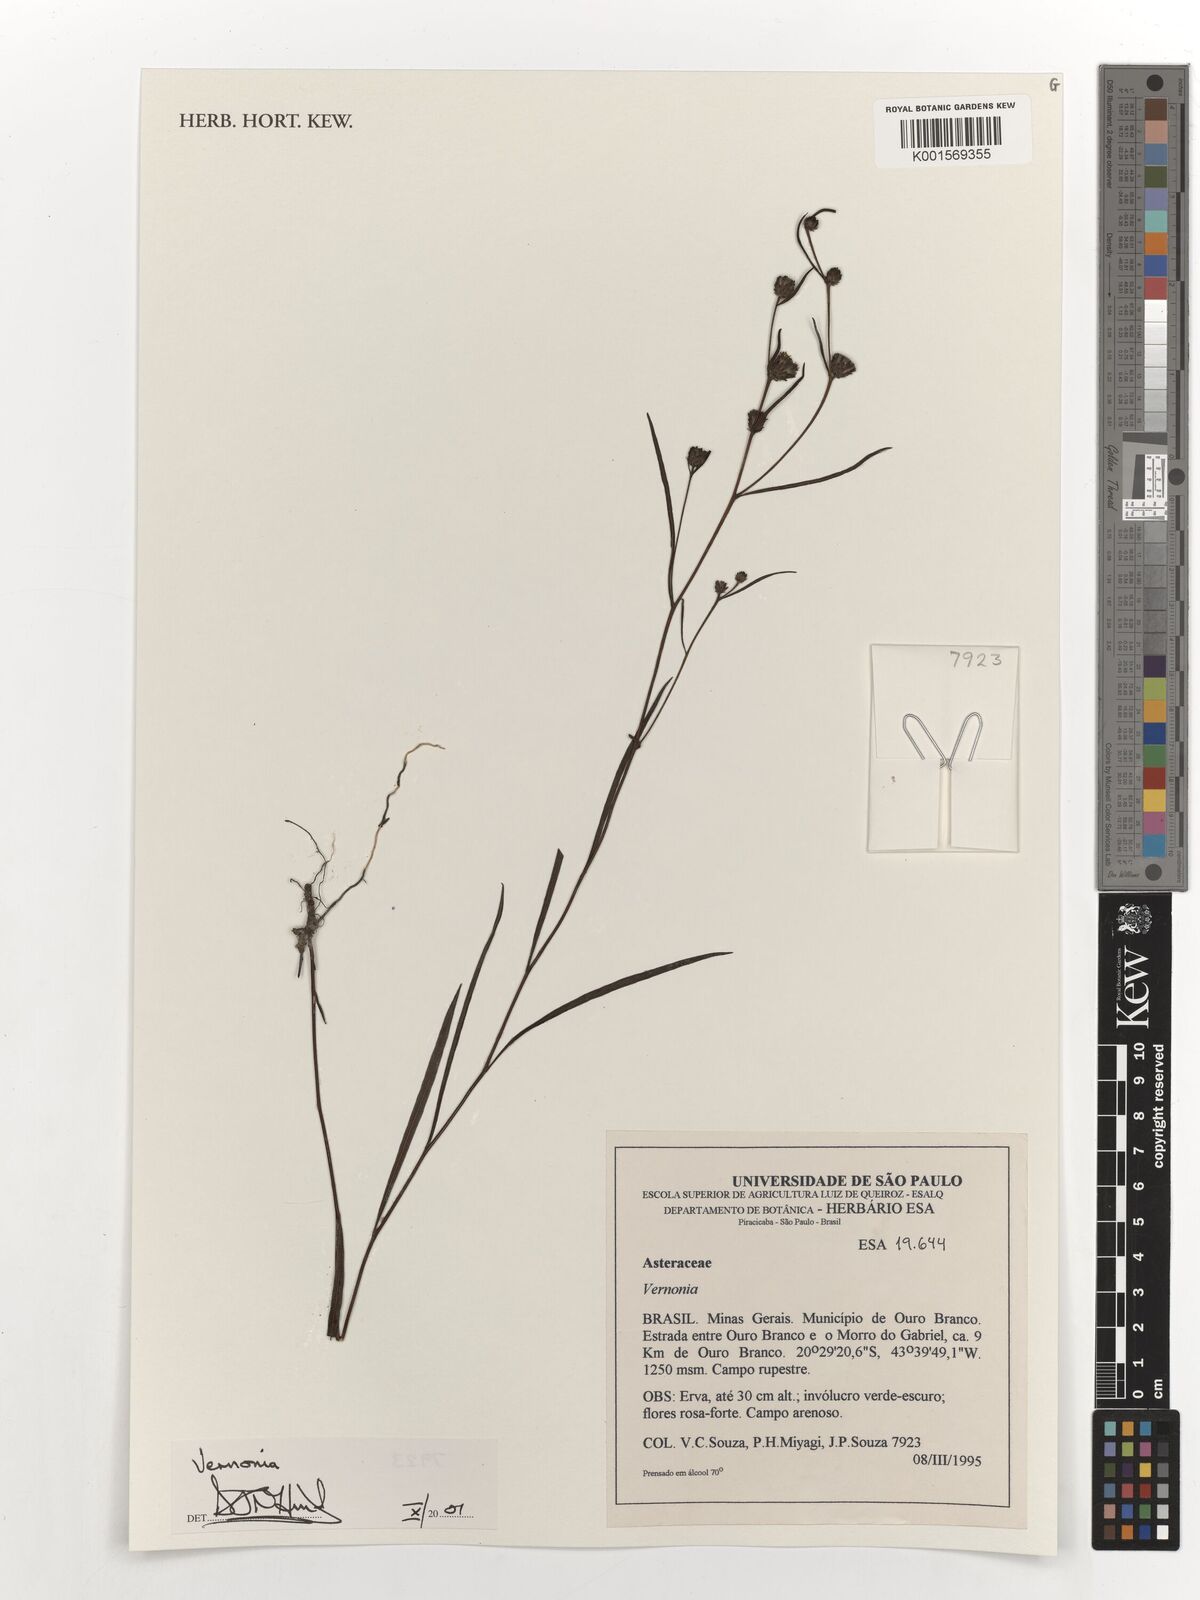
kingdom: Plantae
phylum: Tracheophyta
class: Magnoliopsida
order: Asterales
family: Asteraceae
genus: Vernonia
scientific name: Vernonia
